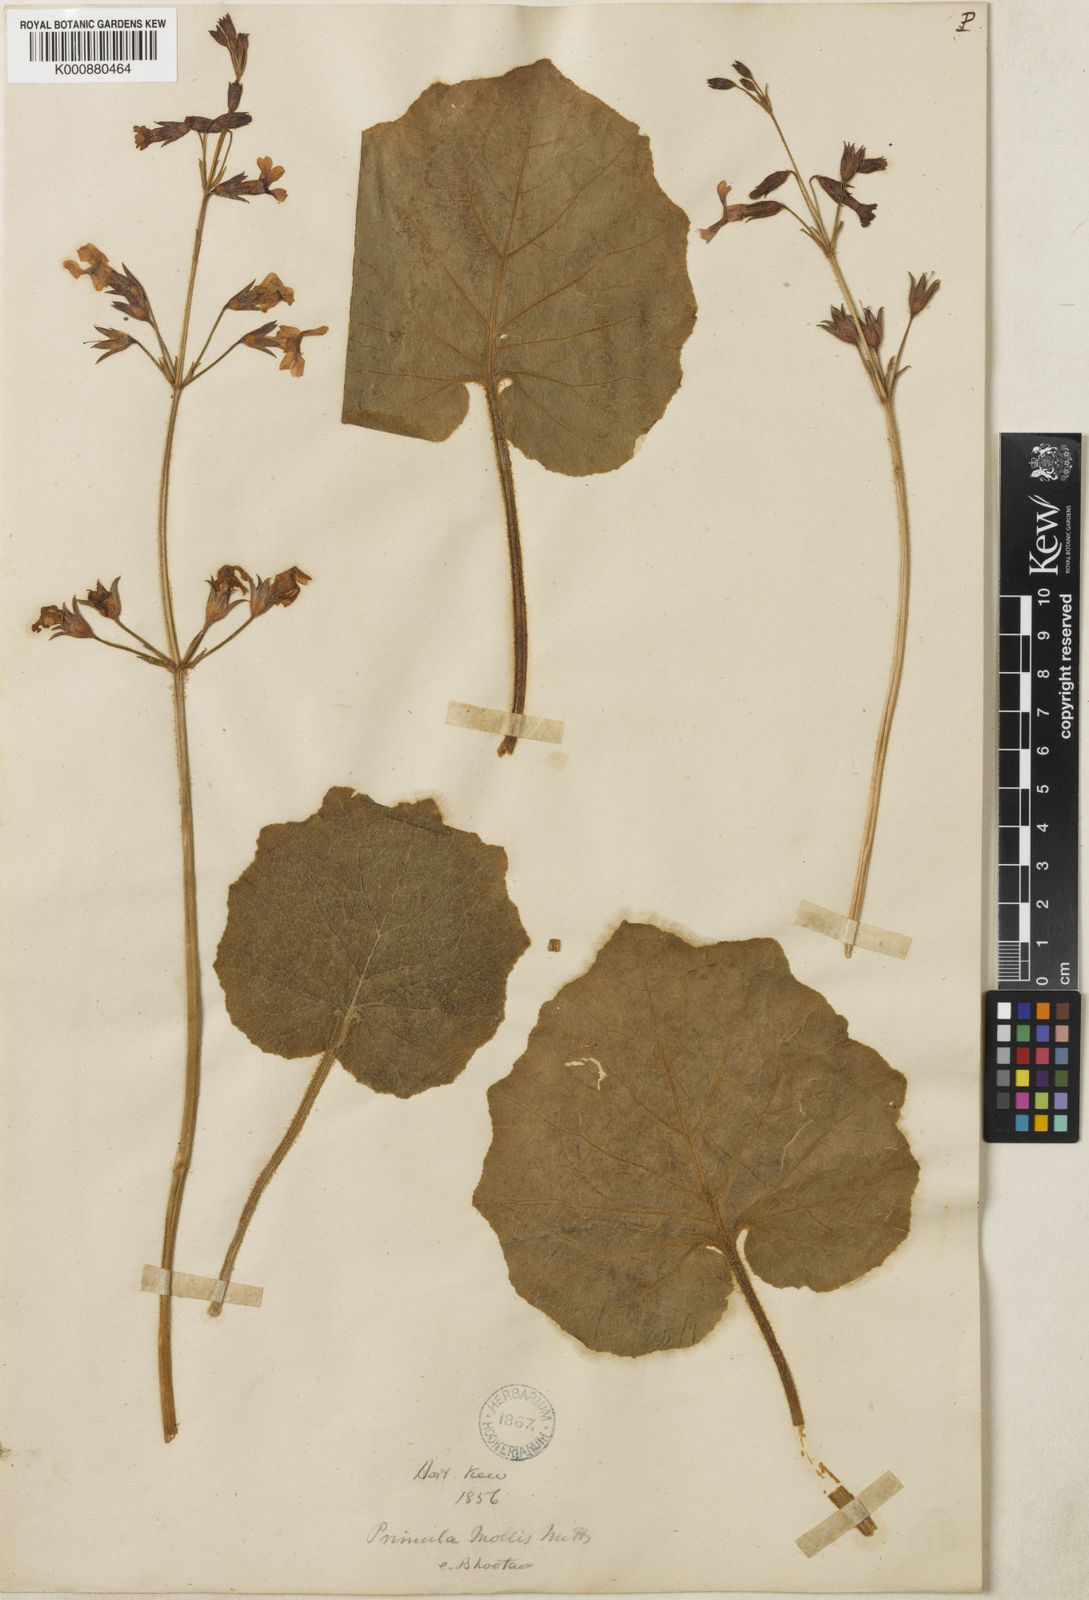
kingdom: Plantae
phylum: Tracheophyta
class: Magnoliopsida
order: Ericales
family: Primulaceae
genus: Primula
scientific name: Primula mollis
